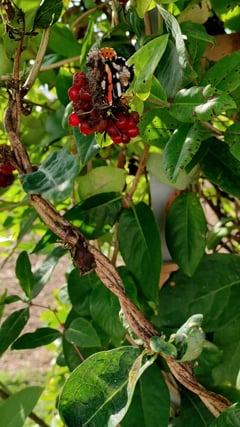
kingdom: Animalia
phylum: Arthropoda
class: Insecta
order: Lepidoptera
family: Nymphalidae
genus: Vanessa
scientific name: Vanessa atalanta
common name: Red admiral
